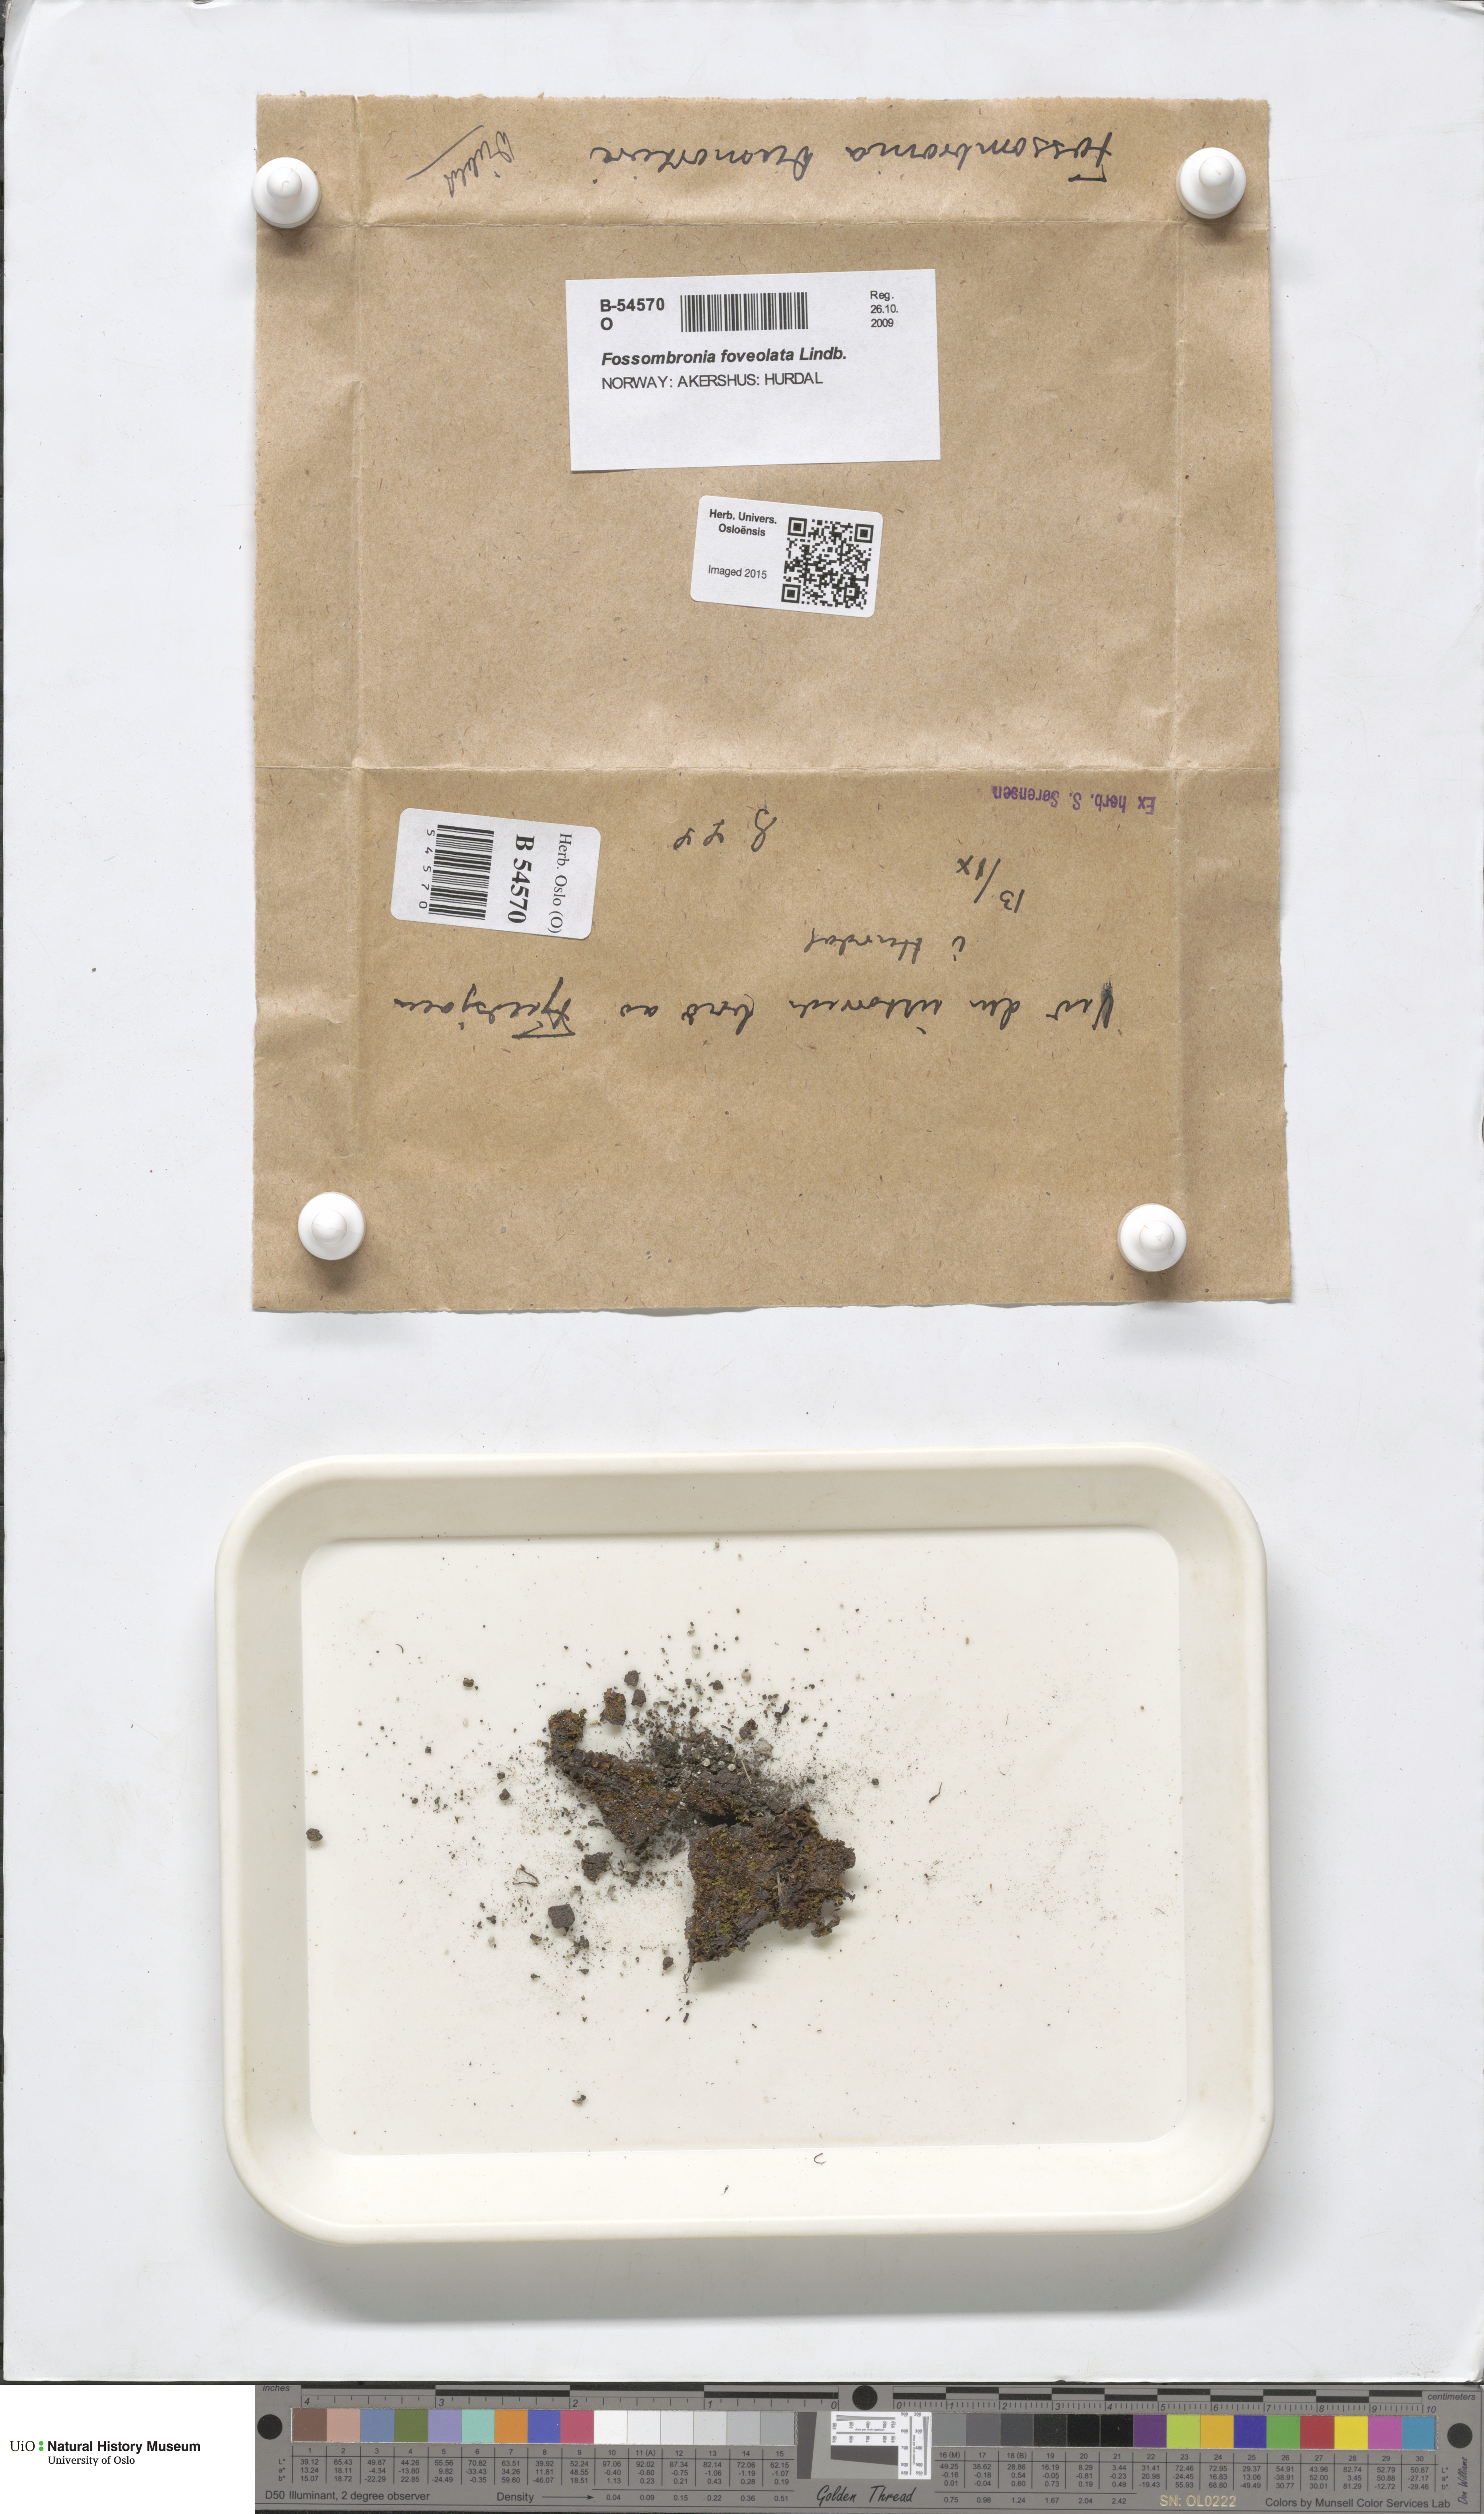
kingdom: Plantae
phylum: Marchantiophyta
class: Jungermanniopsida
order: Fossombroniales
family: Fossombroniaceae
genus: Fossombronia
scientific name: Fossombronia foveolata
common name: Pitted frillwort
